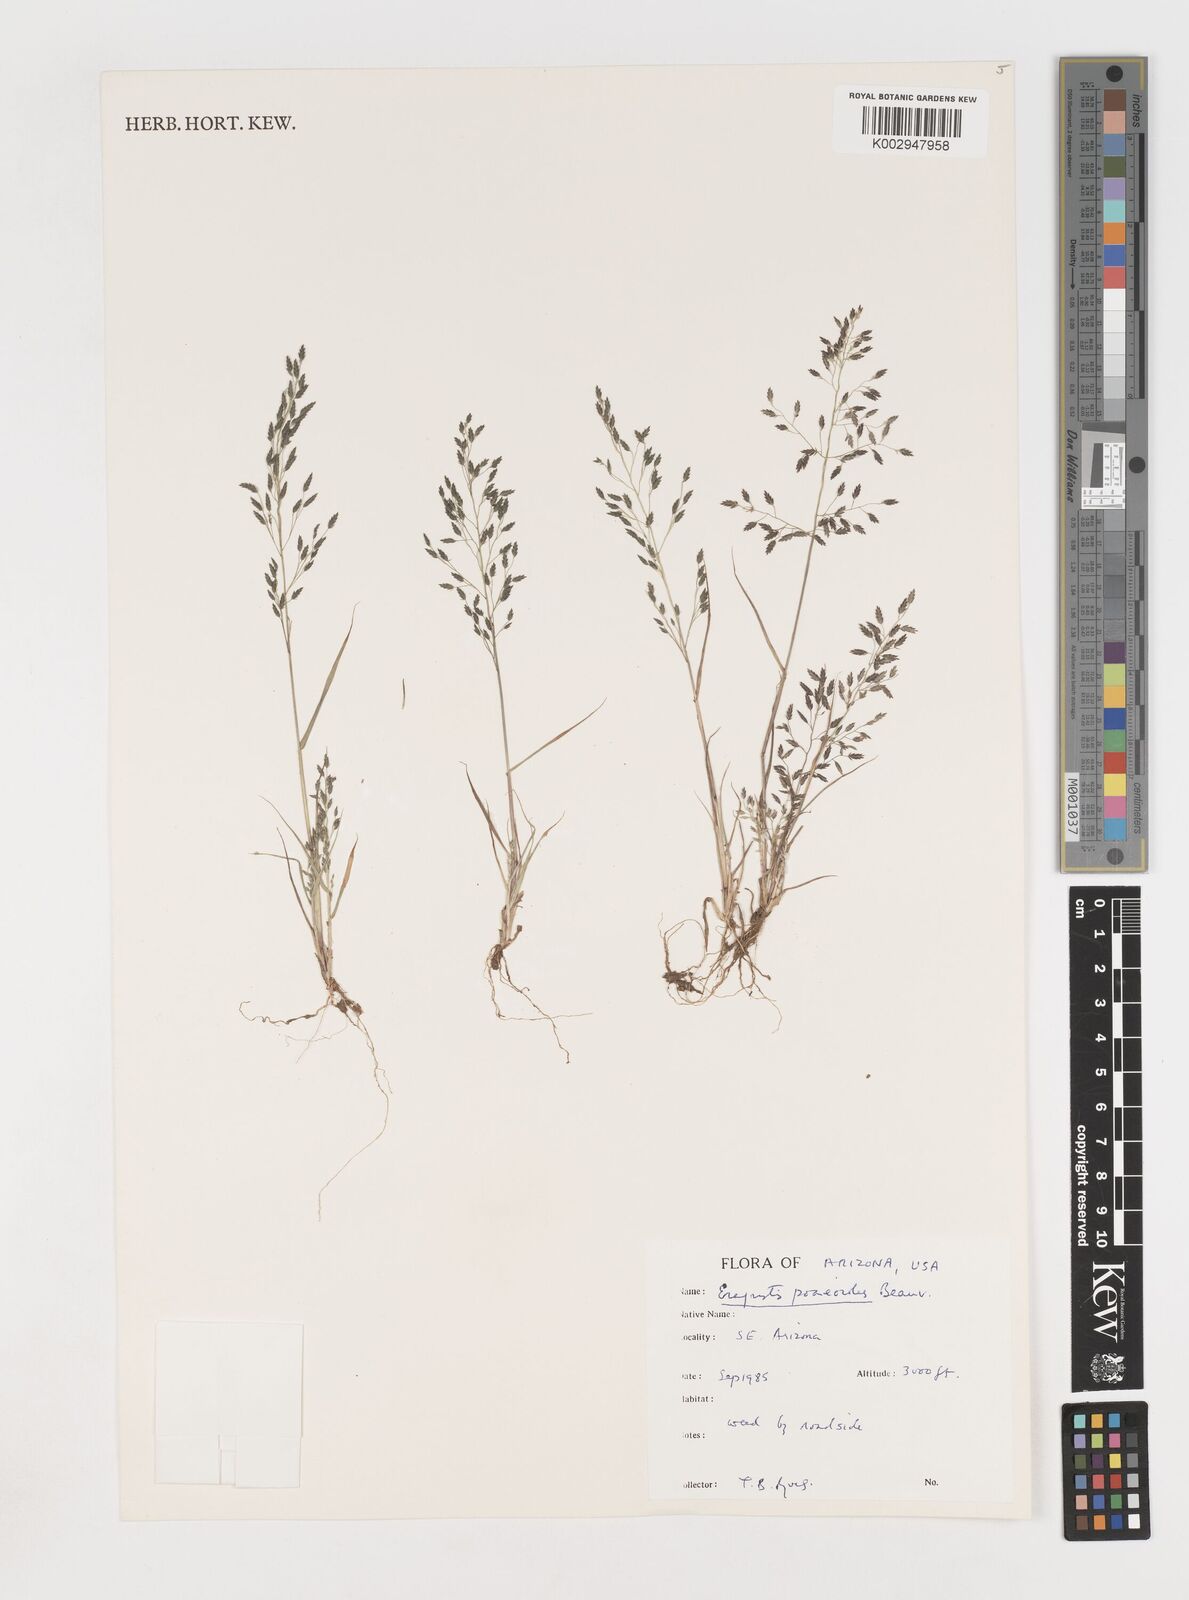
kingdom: Plantae
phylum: Tracheophyta
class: Liliopsida
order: Poales
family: Poaceae
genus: Eragrostis
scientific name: Eragrostis
